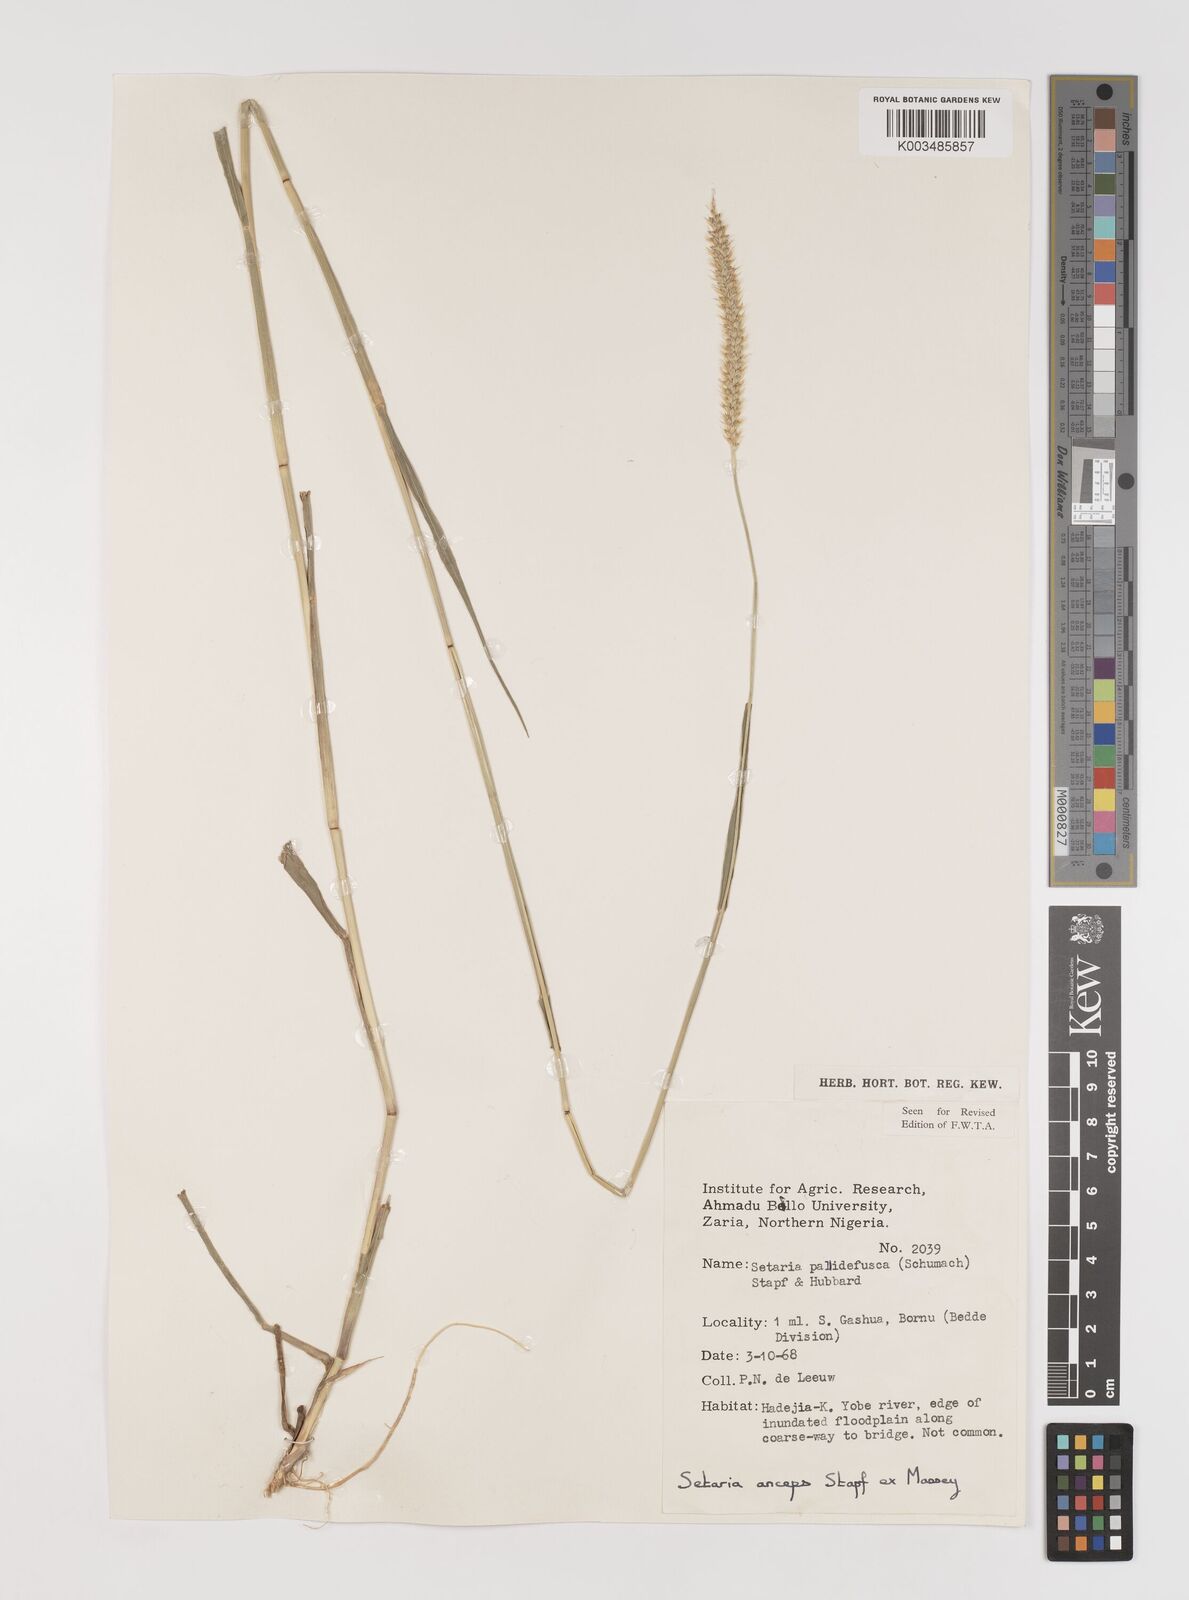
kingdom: Plantae
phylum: Tracheophyta
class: Liliopsida
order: Poales
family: Poaceae
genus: Setaria
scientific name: Setaria sphacelata
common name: African bristlegrass
